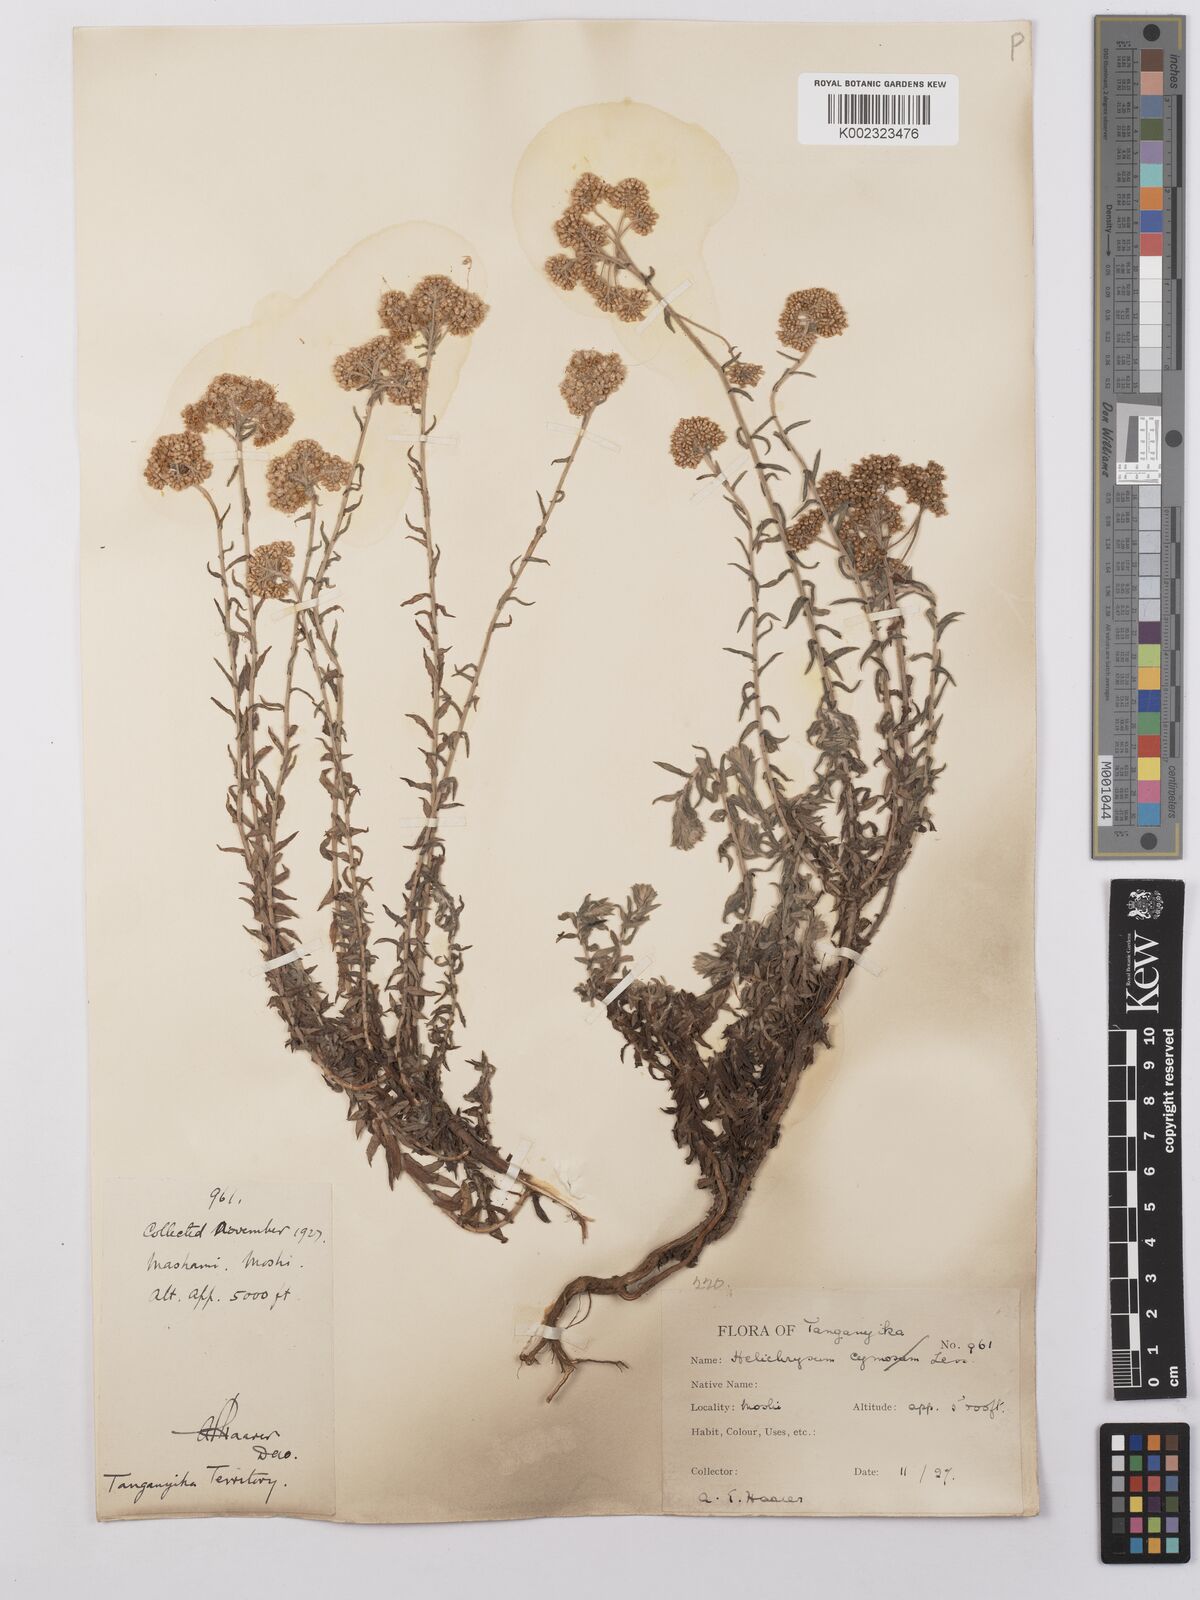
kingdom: Plantae
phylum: Tracheophyta
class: Magnoliopsida
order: Asterales
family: Asteraceae
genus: Helichrysum
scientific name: Helichrysum forskahlii
